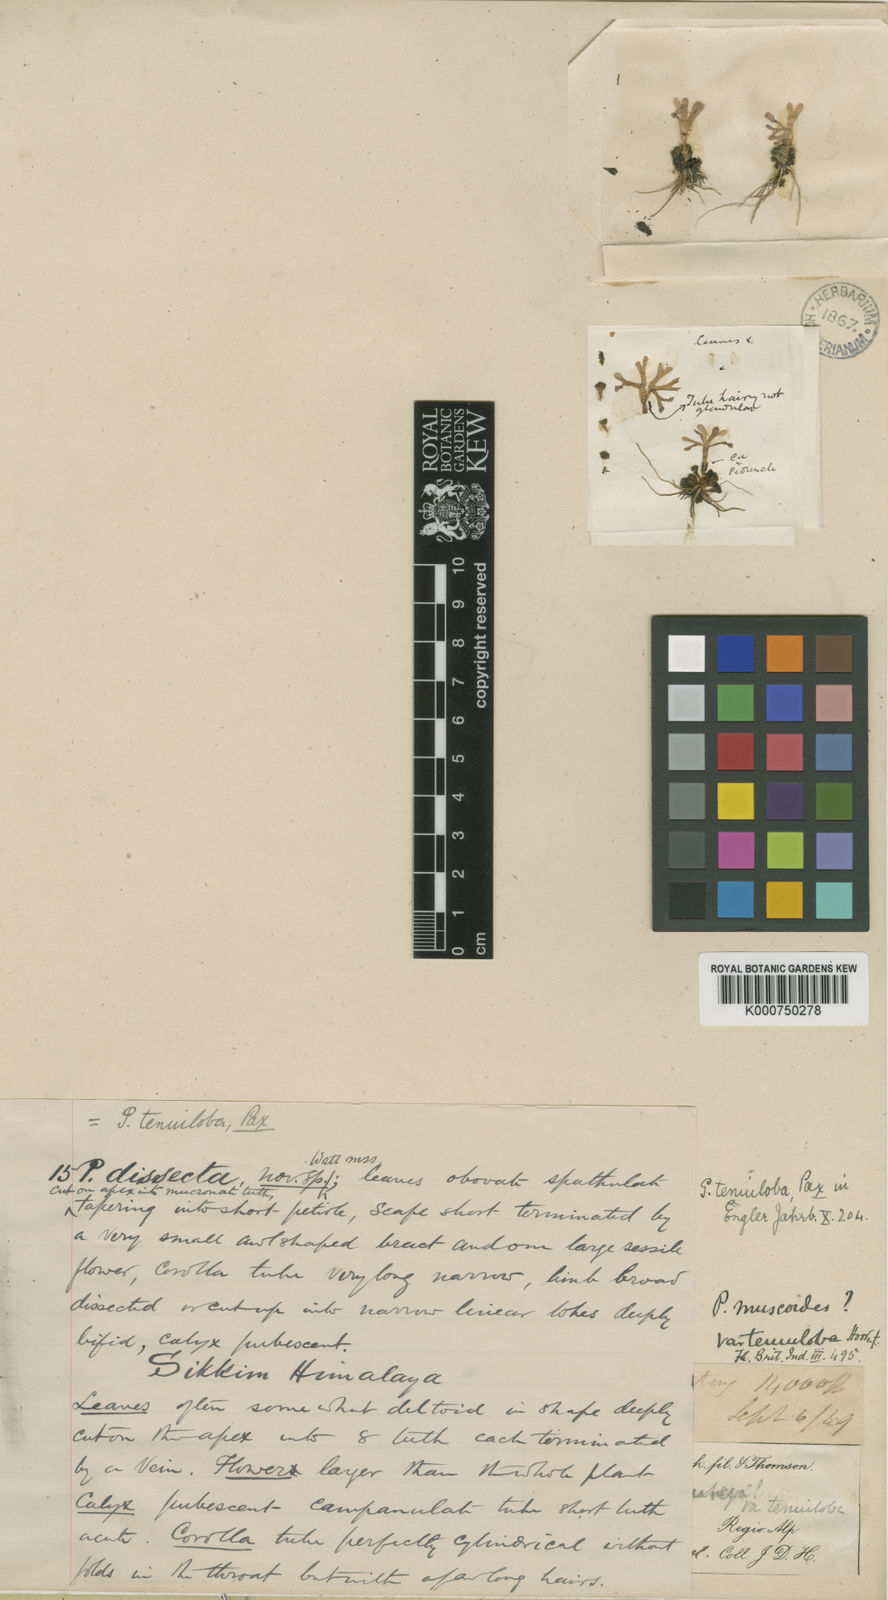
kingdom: Plantae
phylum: Tracheophyta
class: Magnoliopsida
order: Ericales
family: Primulaceae
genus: Primula
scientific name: Primula tenuiloba
